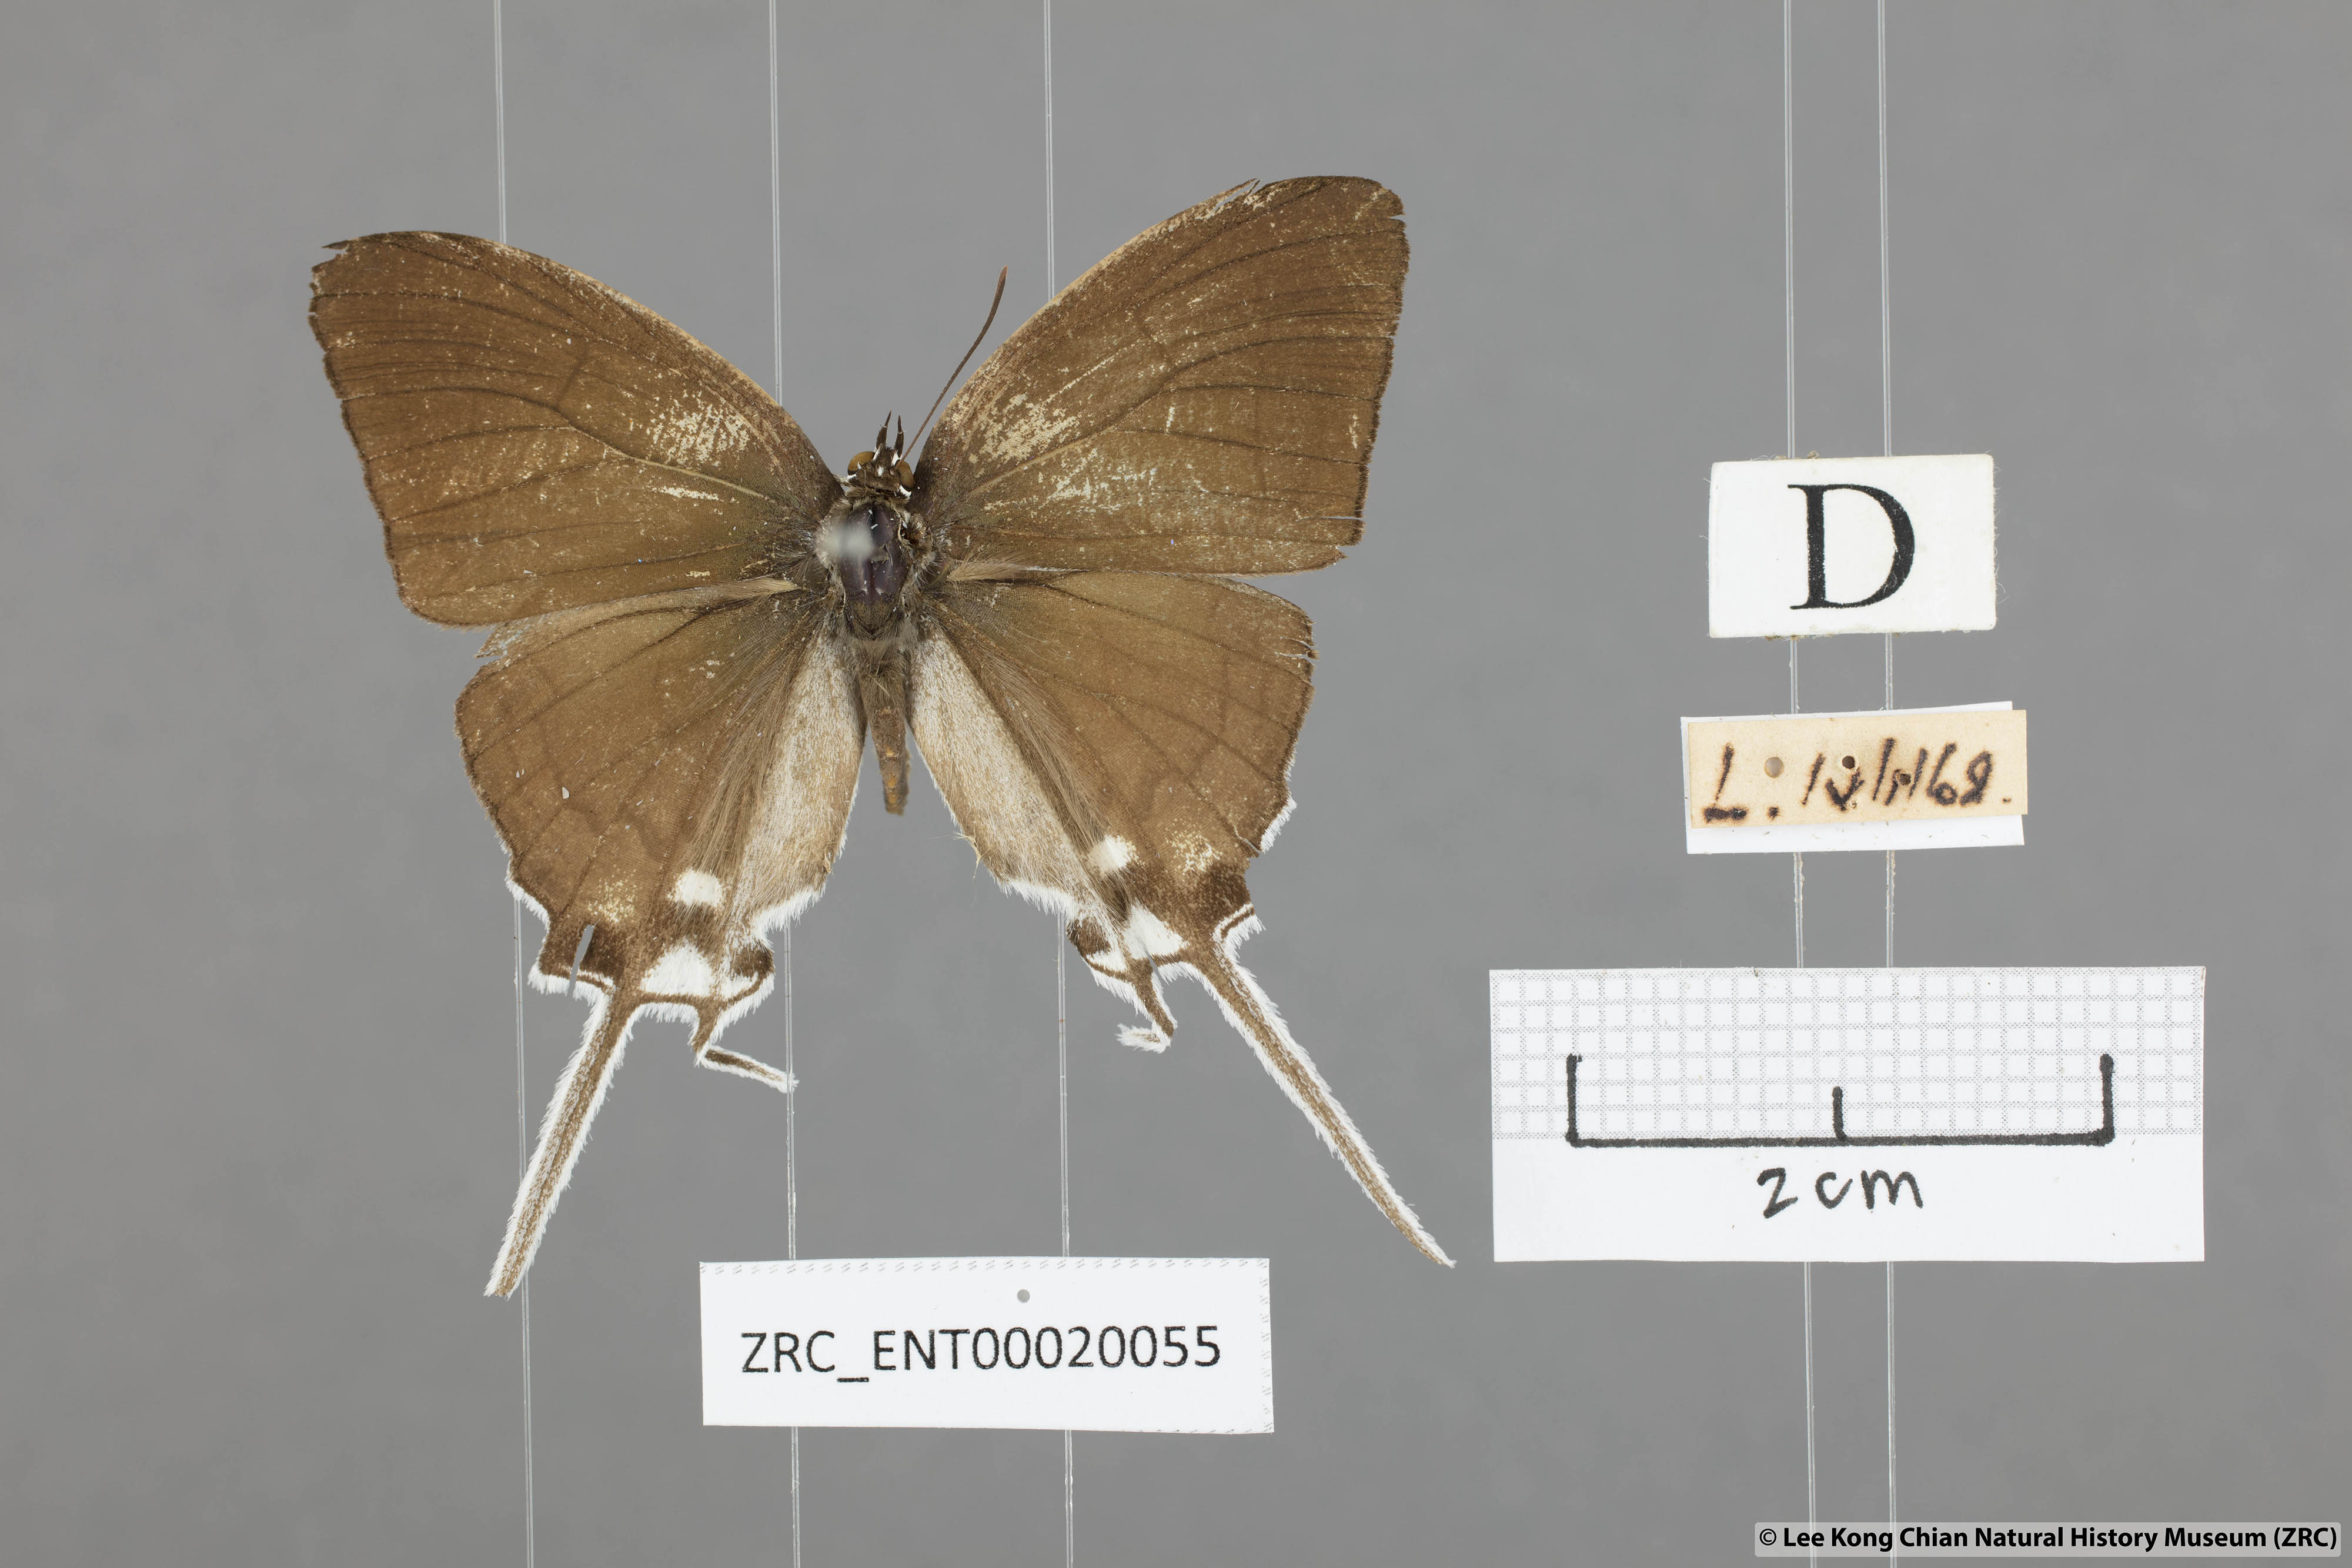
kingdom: Animalia
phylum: Arthropoda
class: Insecta
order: Lepidoptera
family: Lycaenidae
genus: Cheritra
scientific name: Cheritra freja
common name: Common imperial
